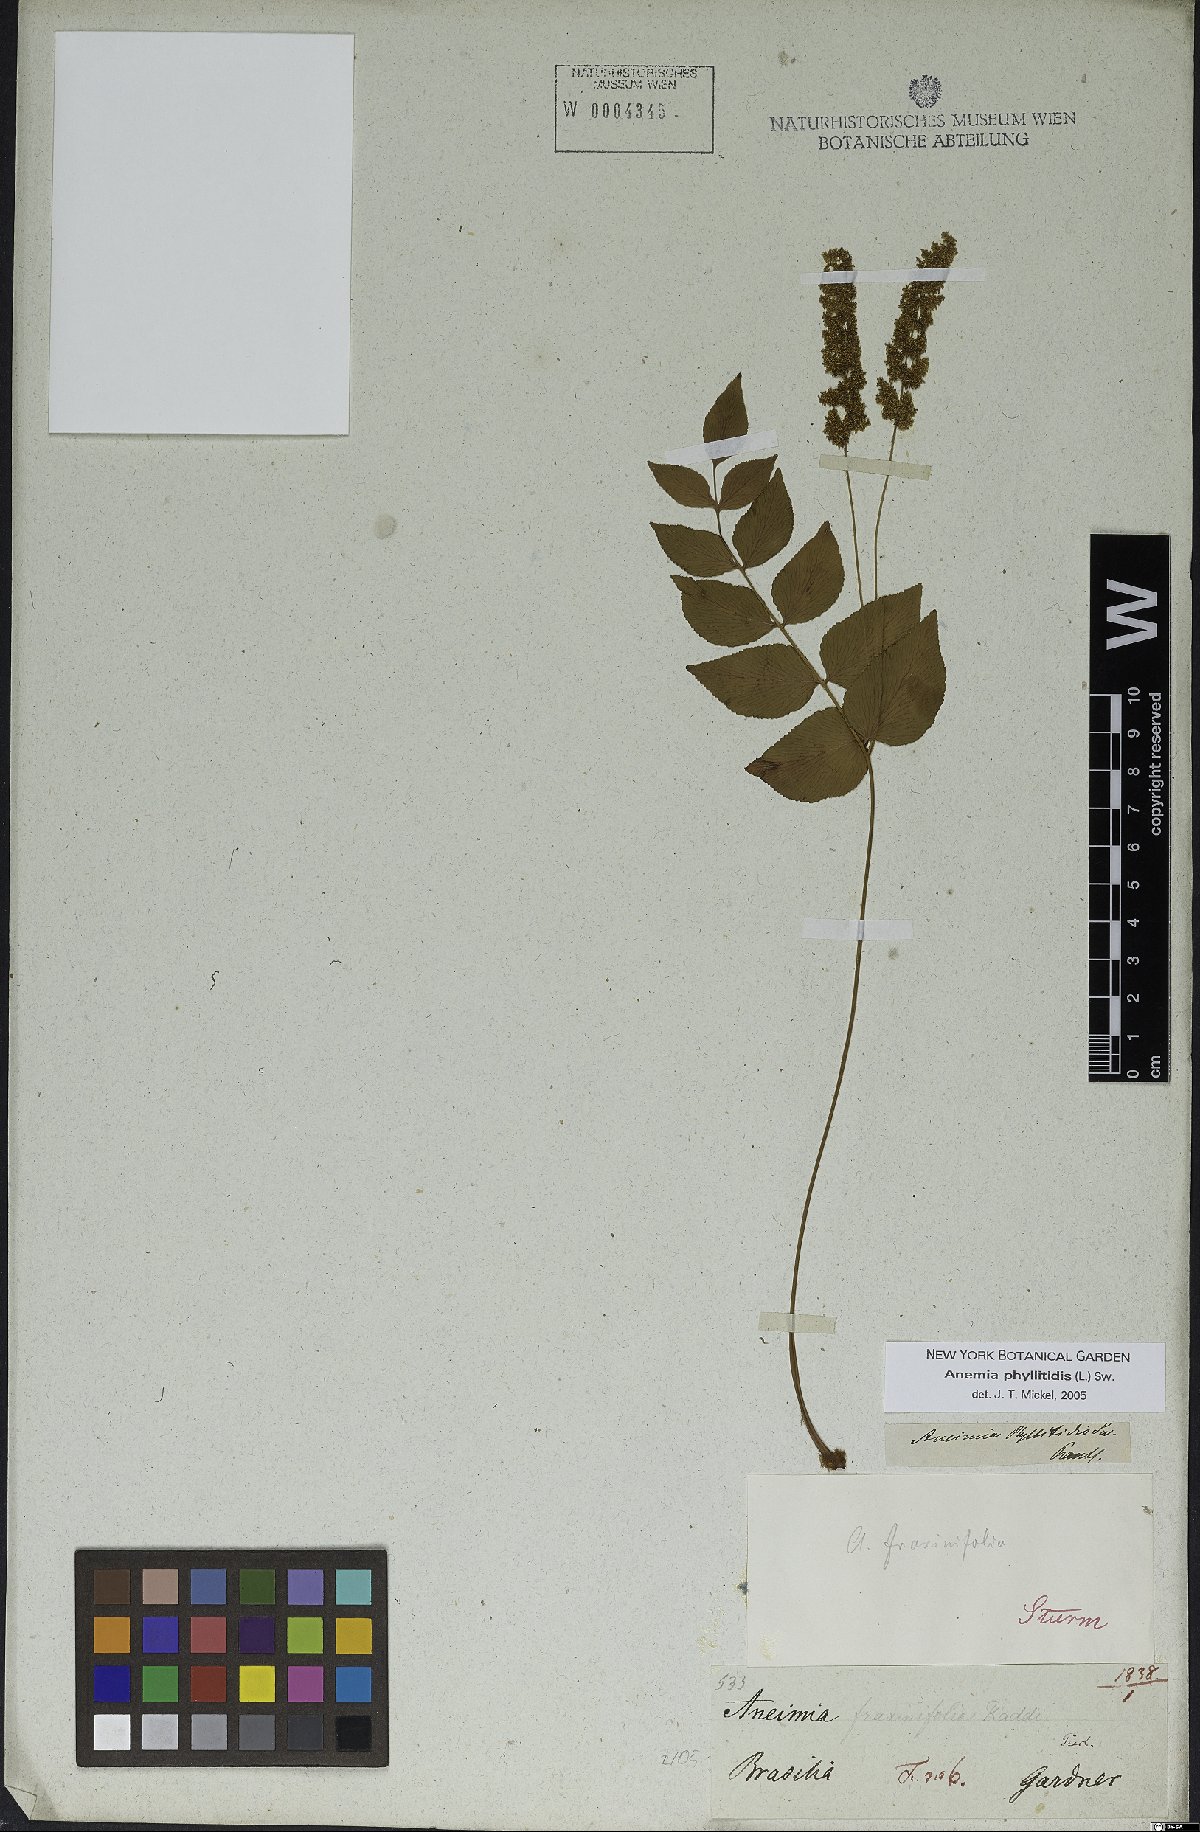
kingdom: Plantae
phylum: Tracheophyta
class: Polypodiopsida
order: Schizaeales
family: Anemiaceae
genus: Anemia
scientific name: Anemia phyllitidis
